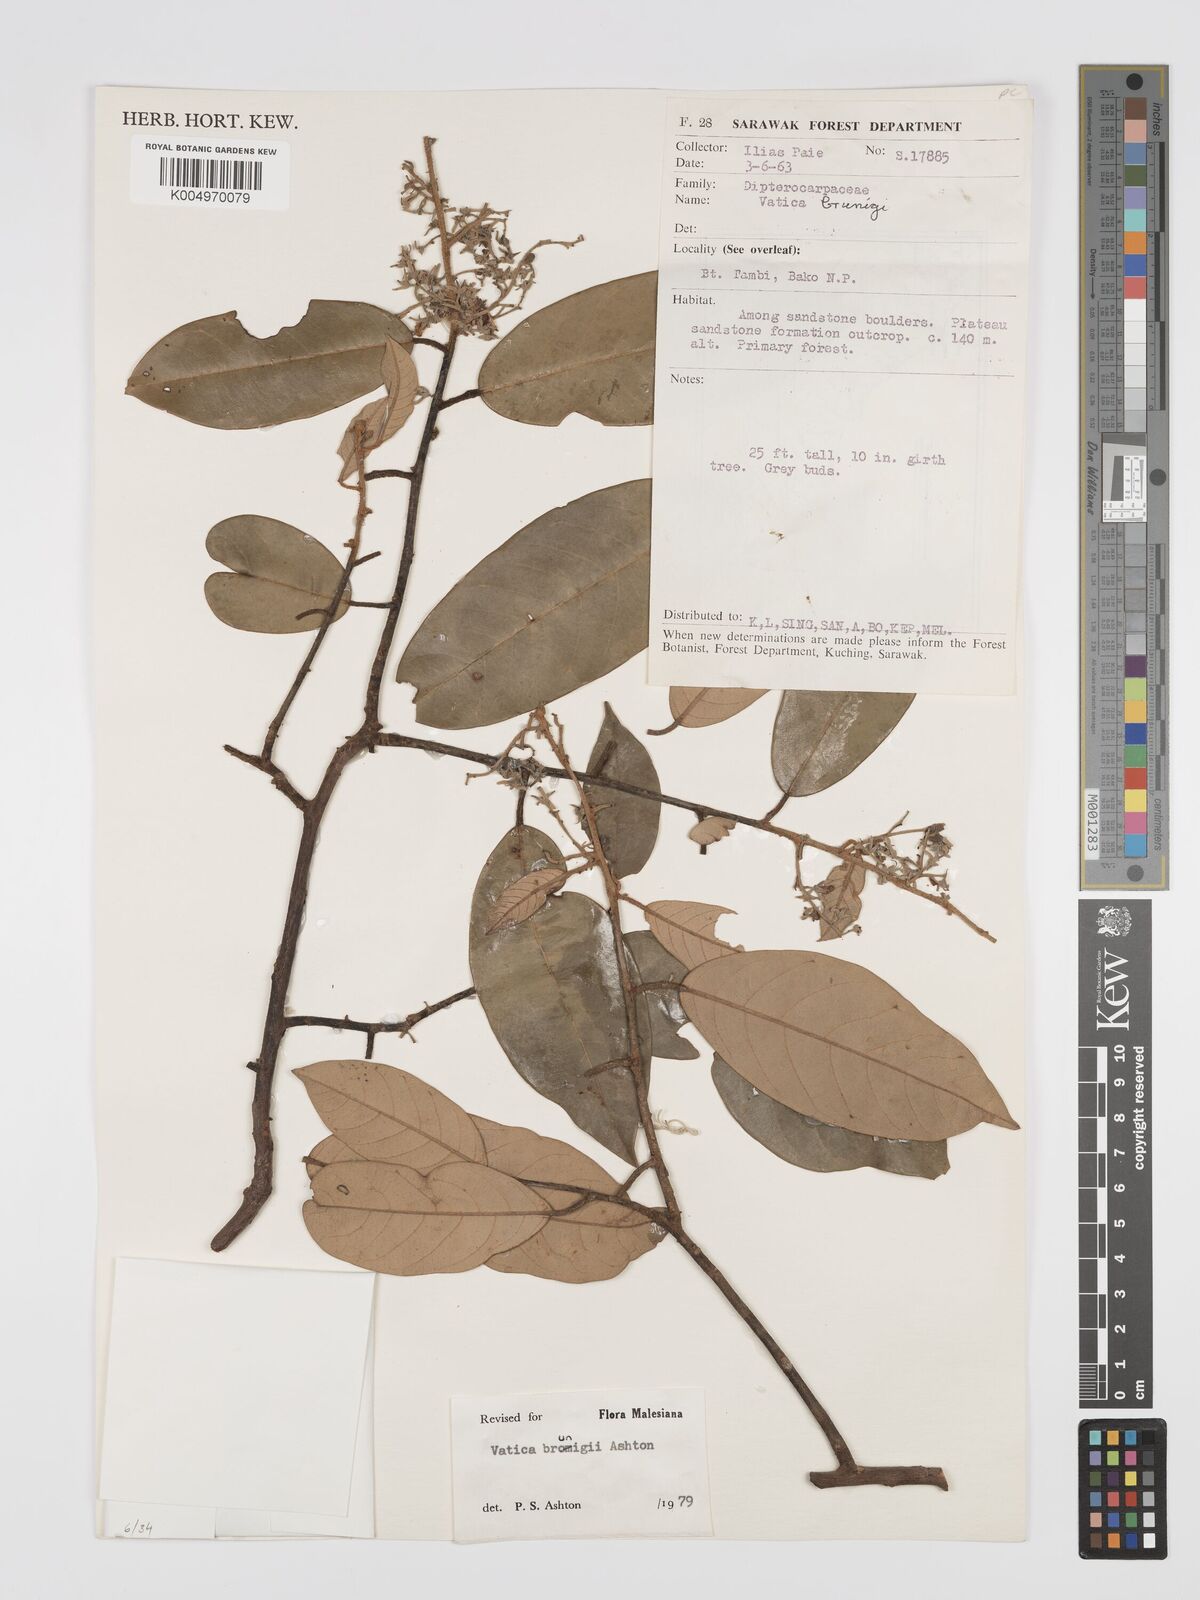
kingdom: Plantae
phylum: Tracheophyta
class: Magnoliopsida
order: Malvales
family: Dipterocarpaceae
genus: Vatica
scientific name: Vatica brunigii
